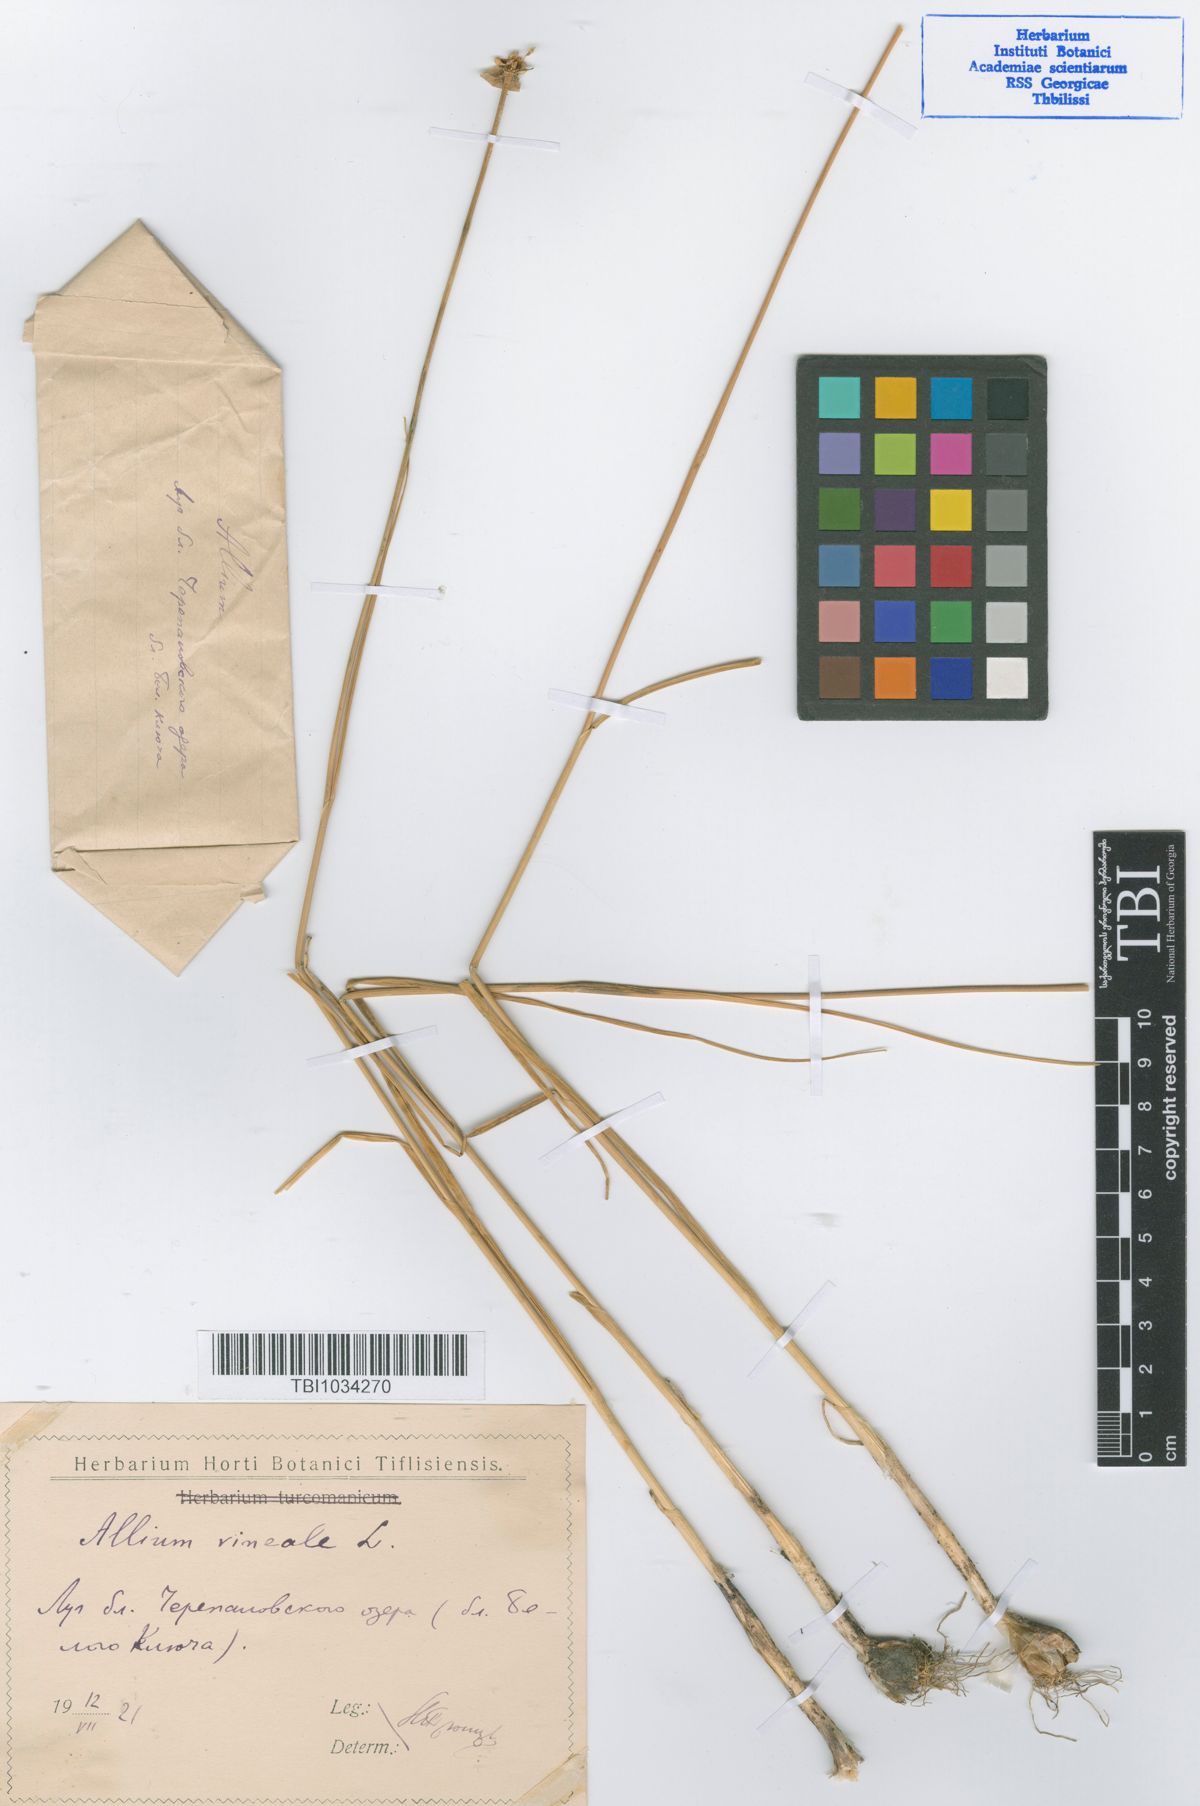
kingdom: Plantae
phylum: Tracheophyta
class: Liliopsida
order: Asparagales
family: Amaryllidaceae
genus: Allium
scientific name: Allium vineale
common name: Crow garlic
